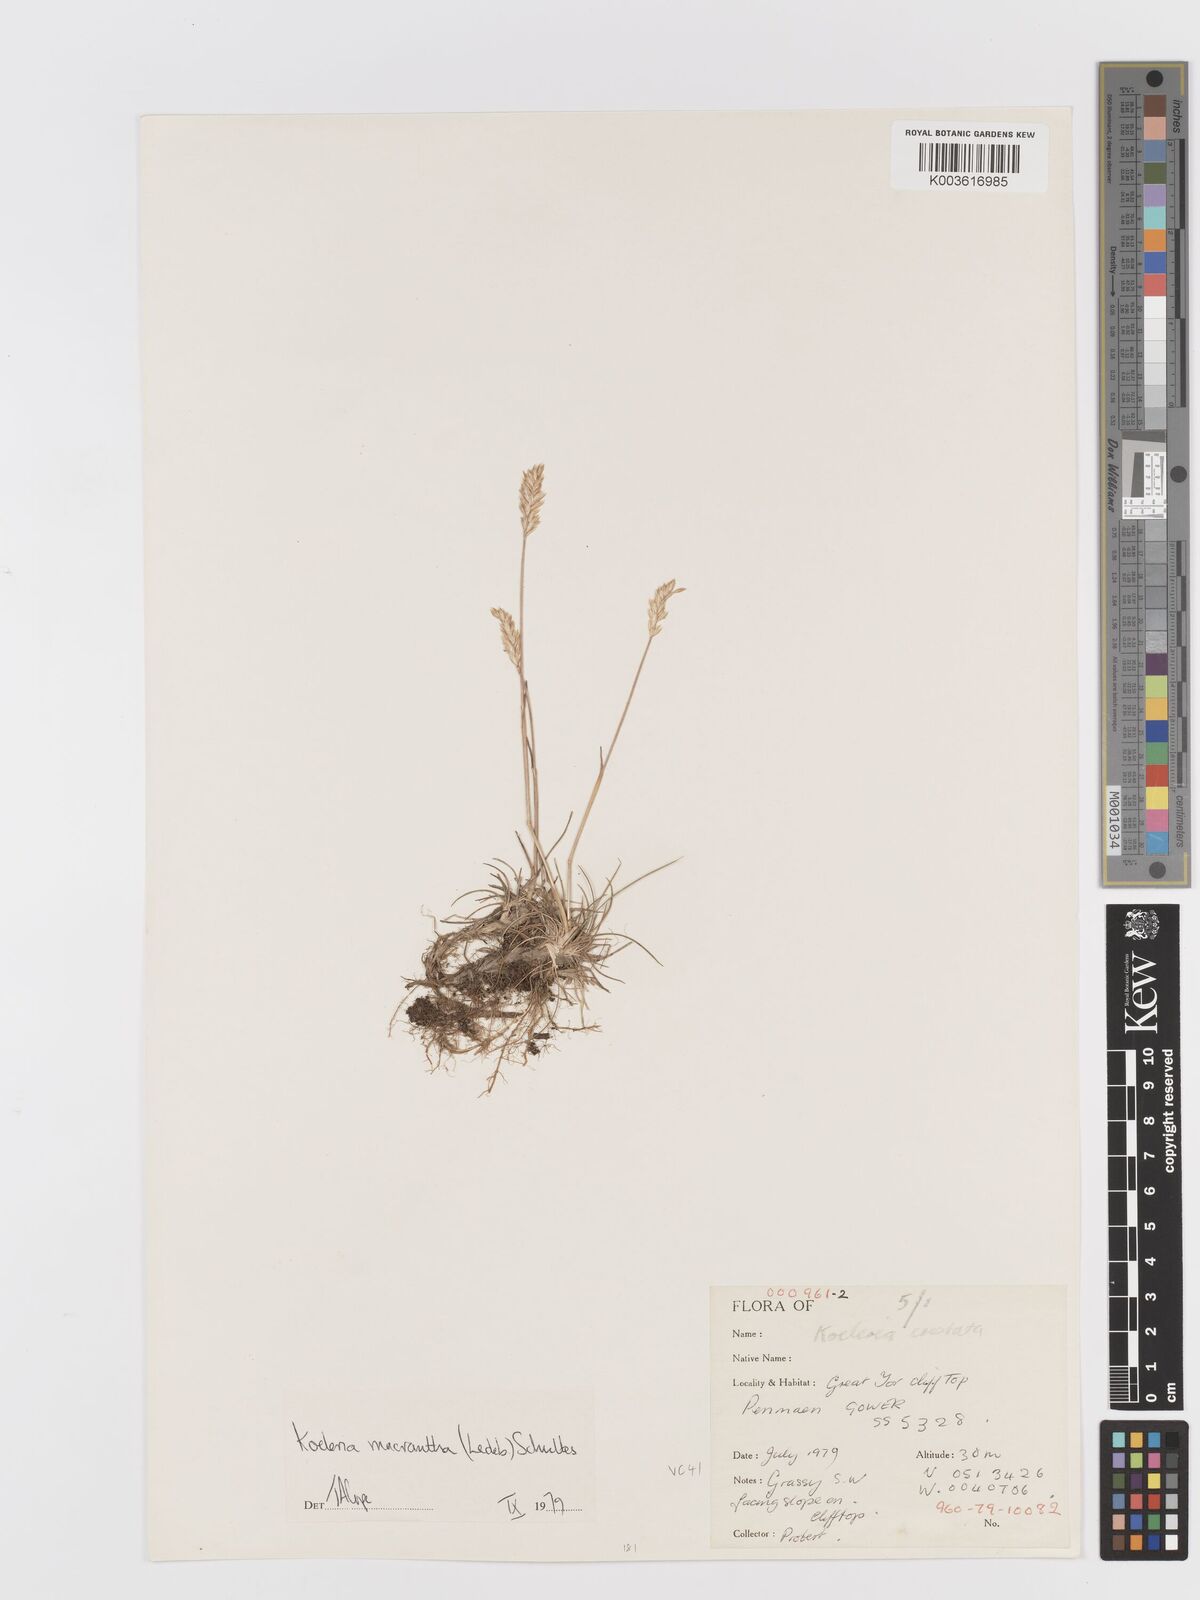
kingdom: Plantae
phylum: Tracheophyta
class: Liliopsida
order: Poales
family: Poaceae
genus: Koeleria
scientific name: Koeleria macrantha
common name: Crested hair-grass
